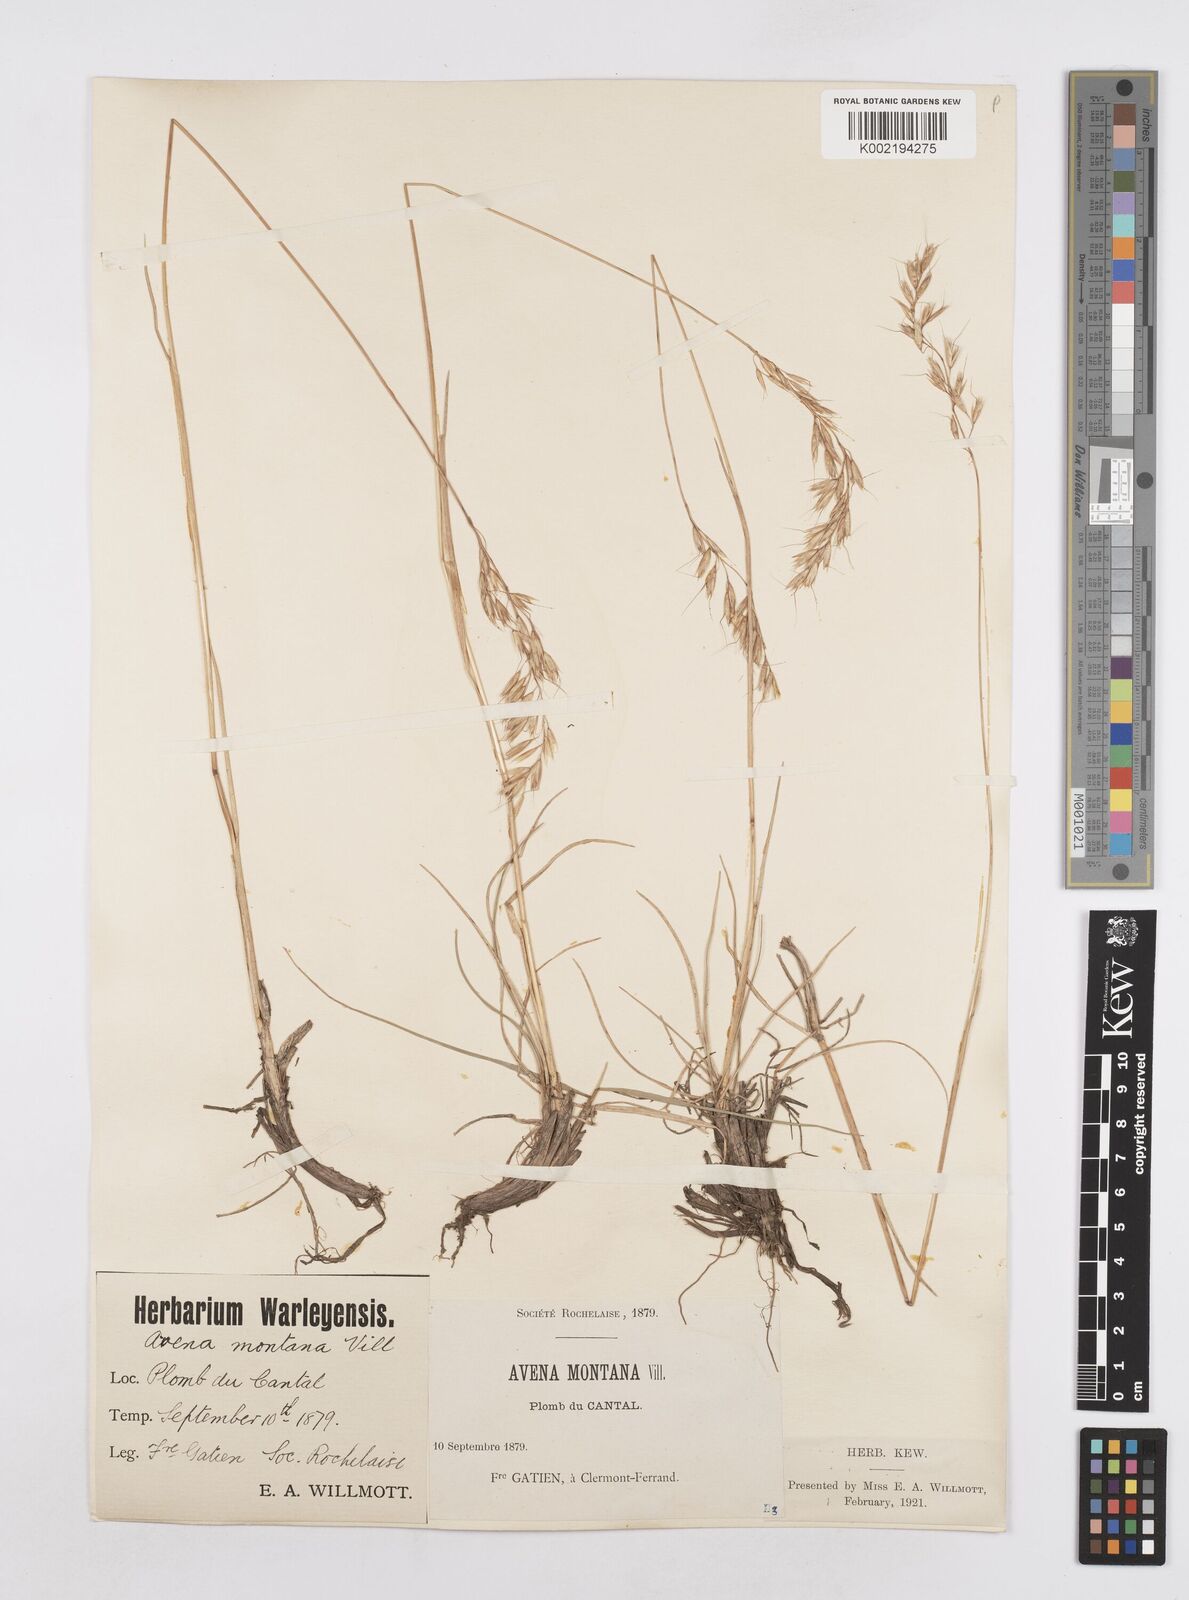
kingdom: Plantae
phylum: Tracheophyta
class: Liliopsida
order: Poales
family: Poaceae
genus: Helictotrichon
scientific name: Helictotrichon sedenense
